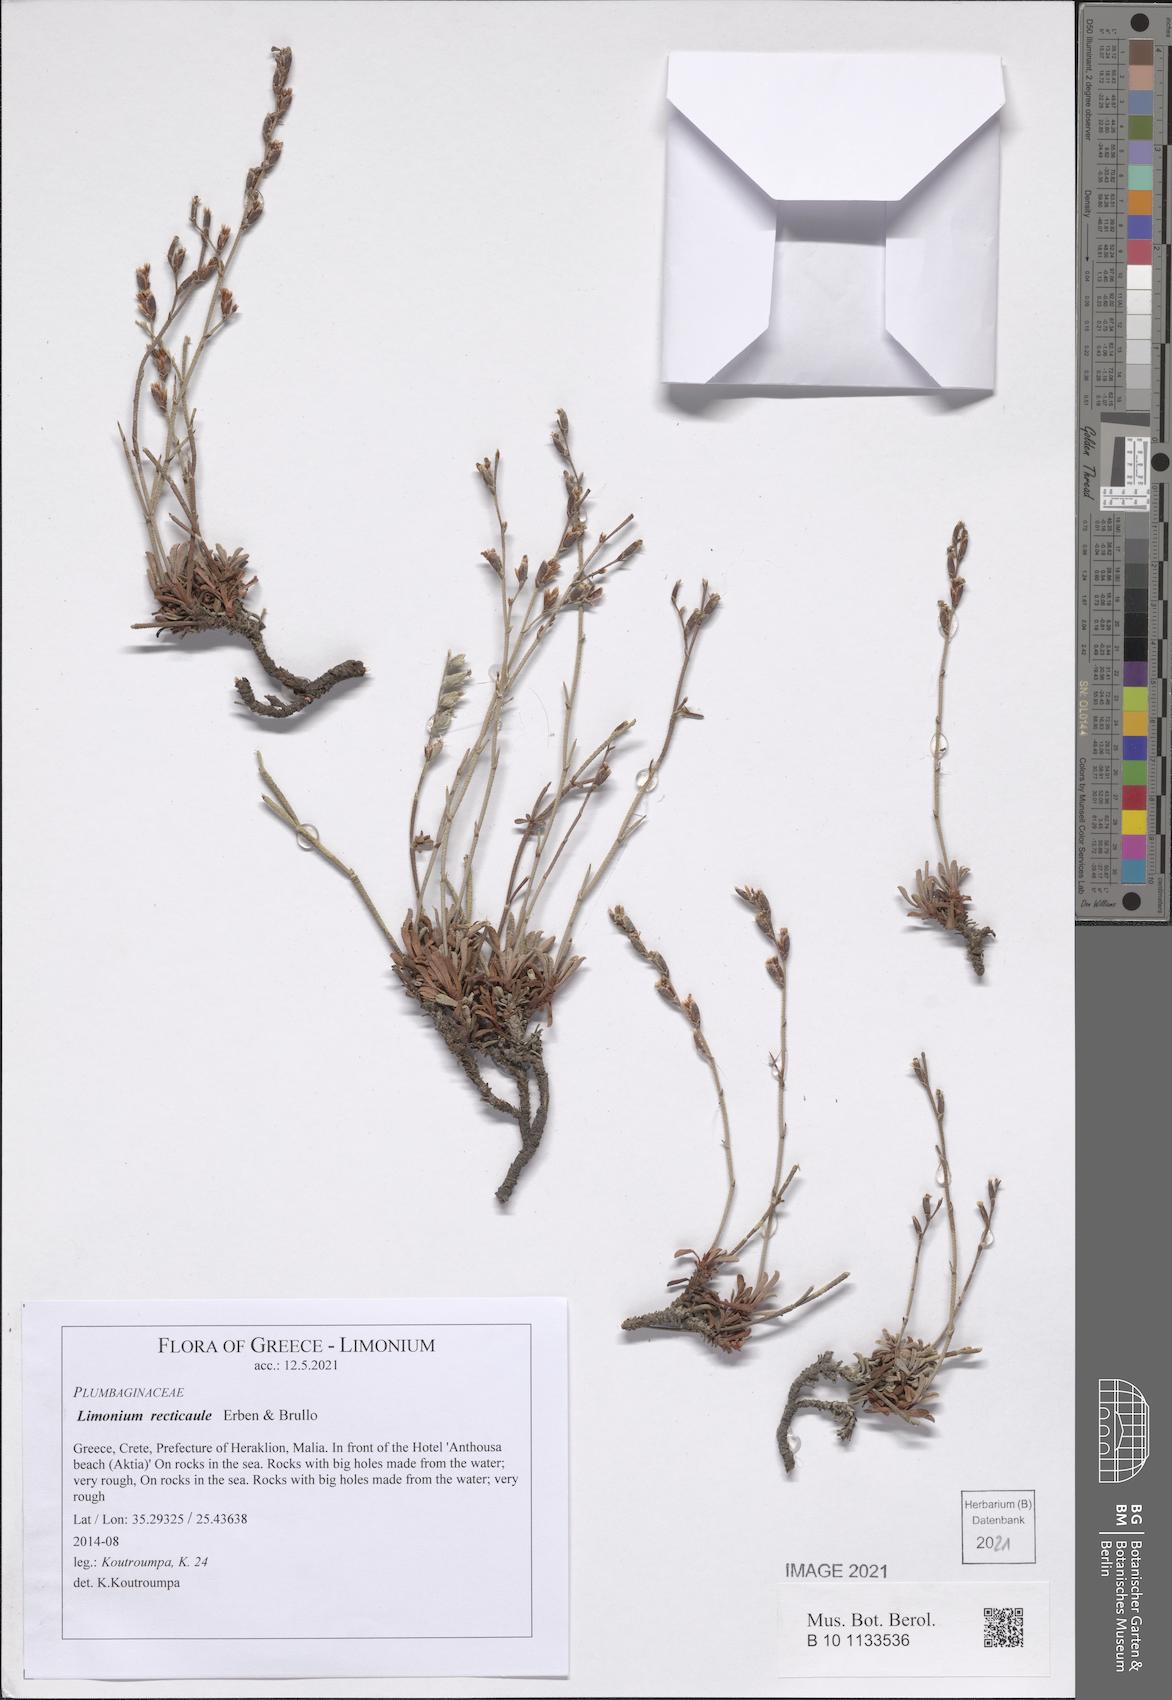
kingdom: Plantae
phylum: Tracheophyta
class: Magnoliopsida
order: Caryophyllales
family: Plumbaginaceae
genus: Limonium
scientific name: Limonium recticaule
